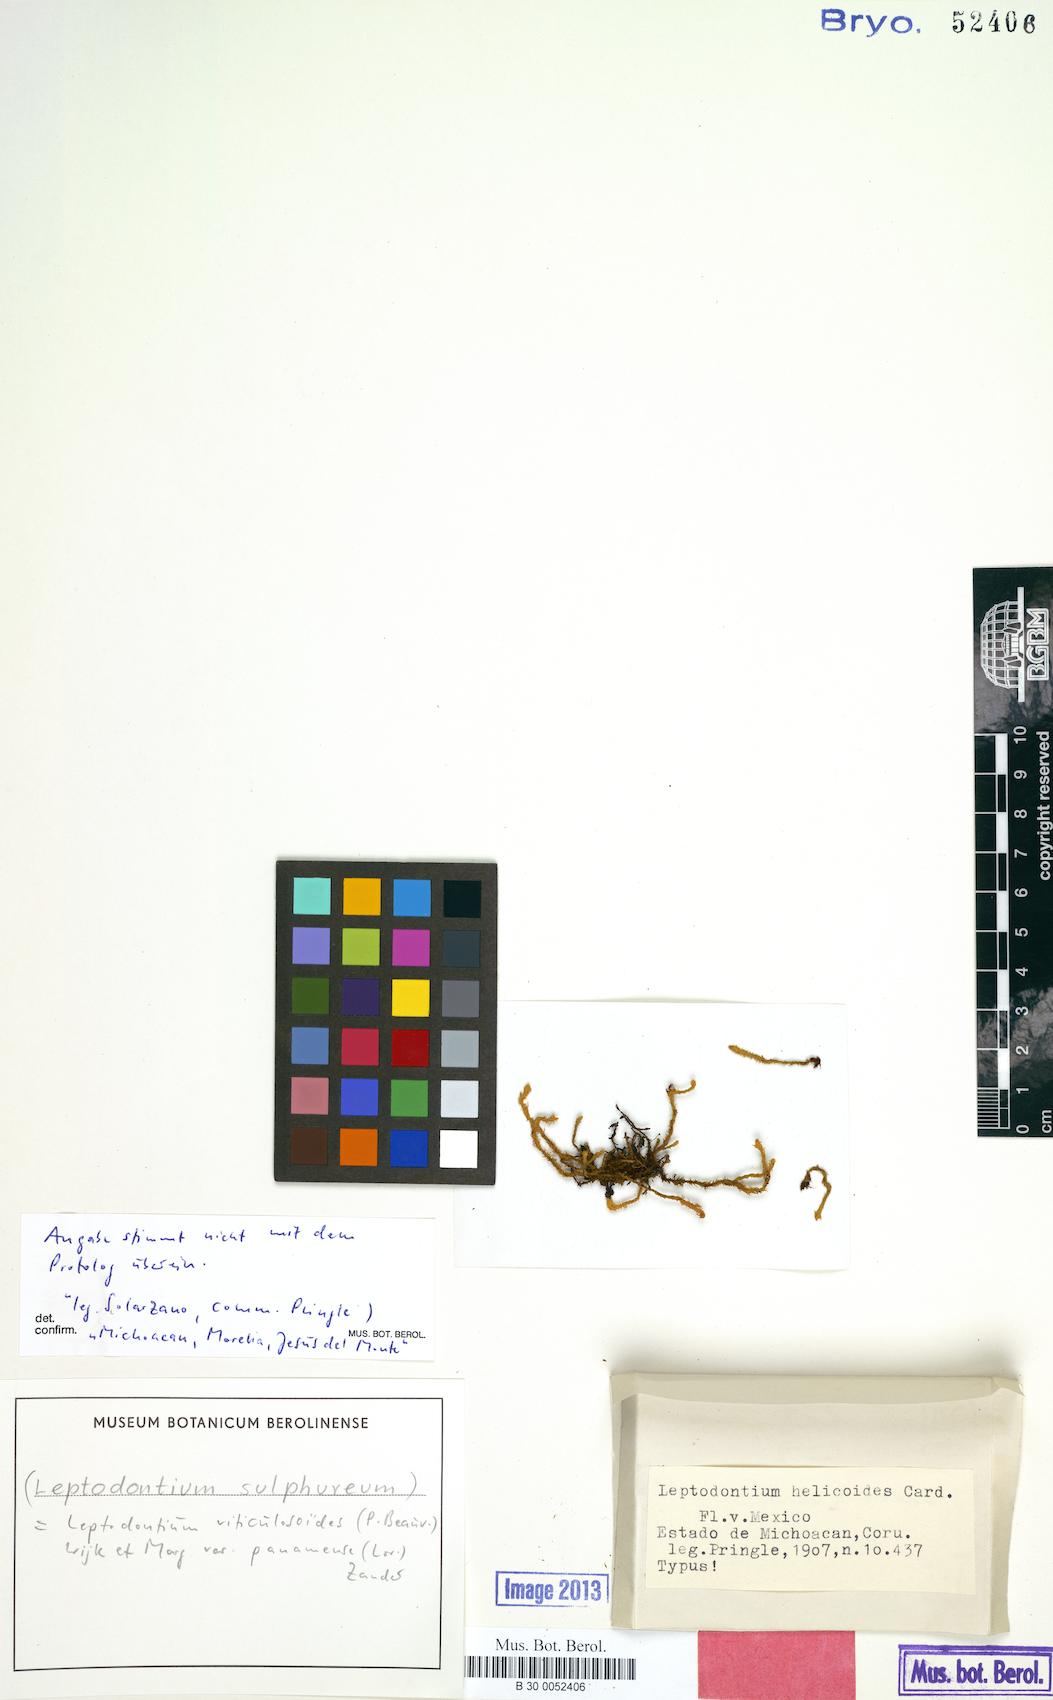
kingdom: Plantae
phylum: Bryophyta
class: Bryopsida
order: Pottiales
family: Pottiaceae
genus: Leptodontium
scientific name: Leptodontium excelsum
